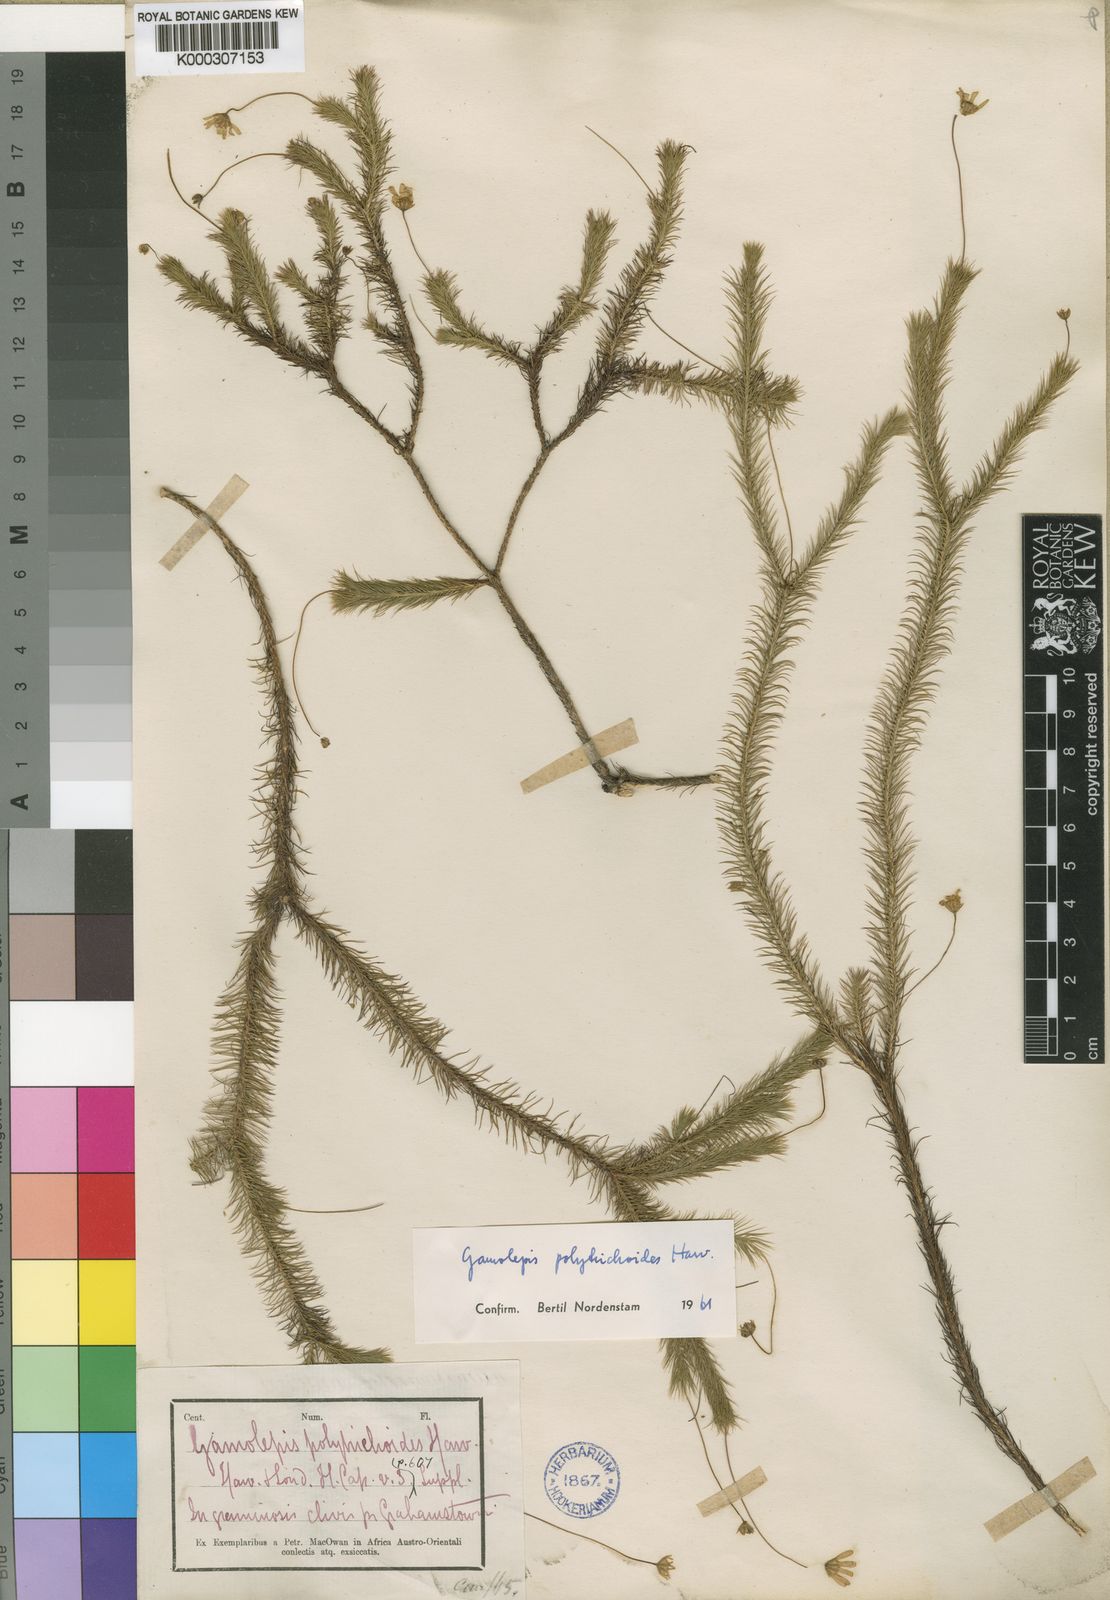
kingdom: Plantae
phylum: Tracheophyta
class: Magnoliopsida
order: Asterales
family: Asteraceae
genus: Euryops
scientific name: Euryops polytrichoides
